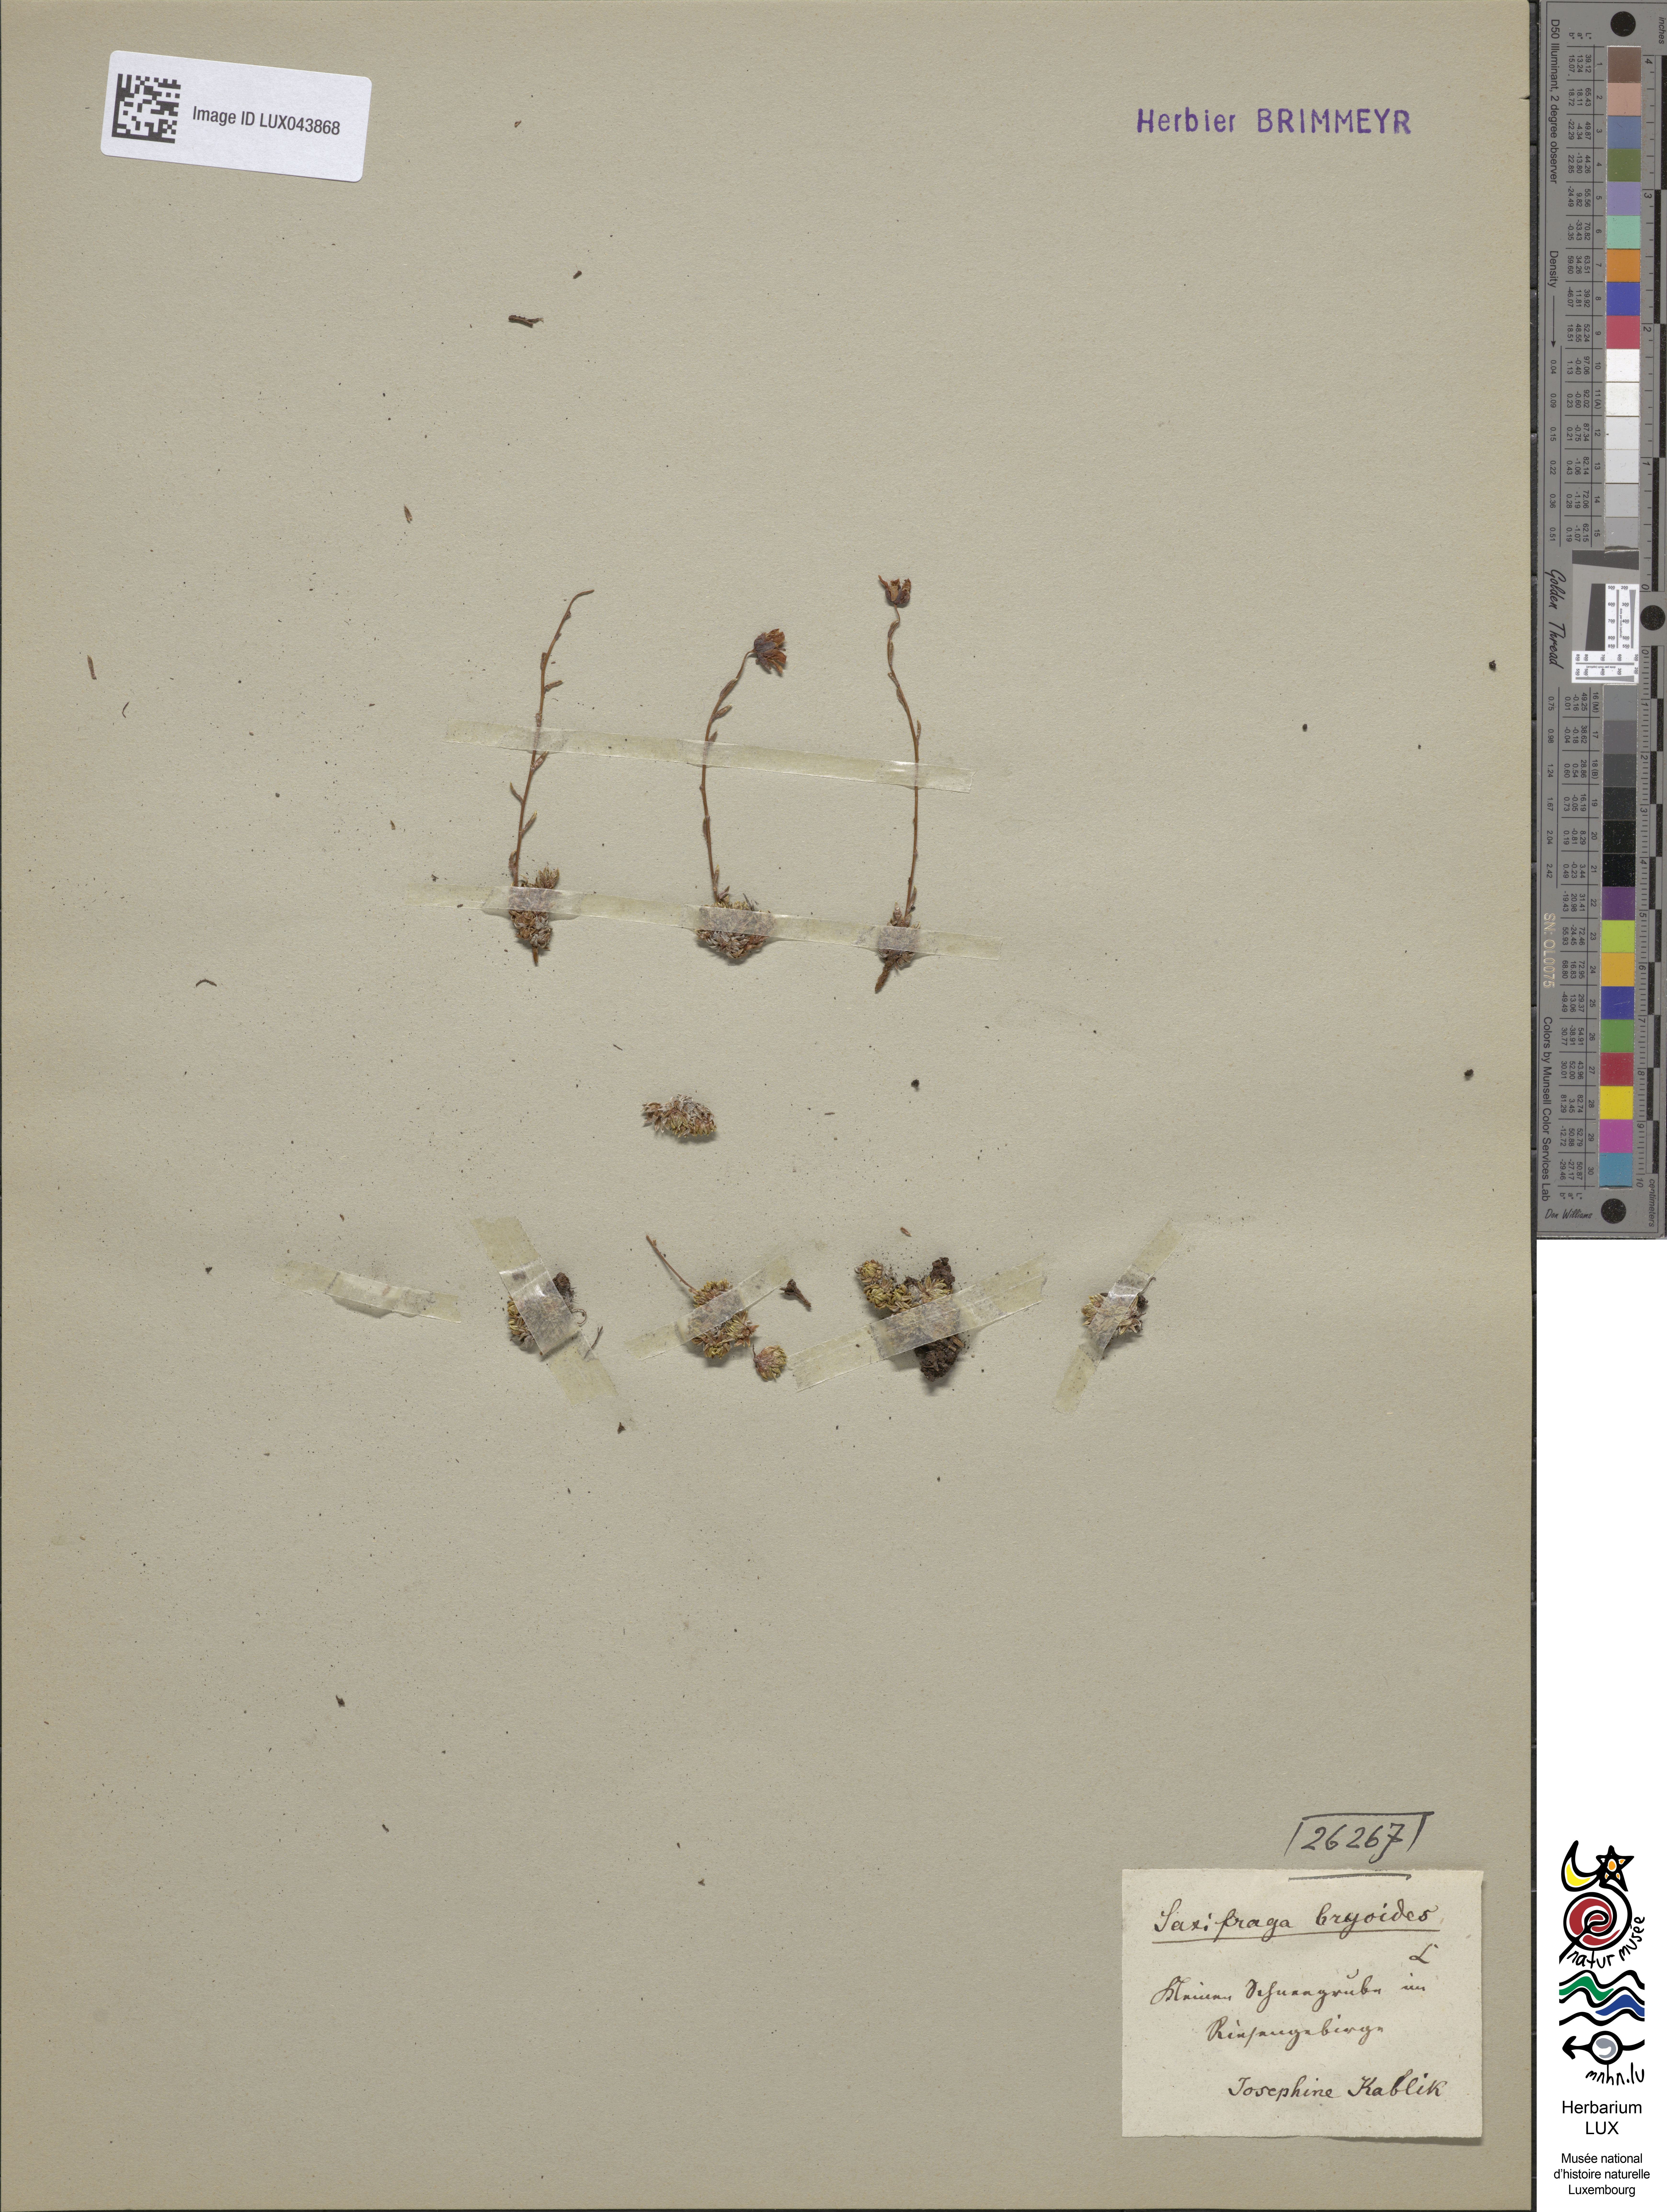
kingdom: Plantae
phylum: Tracheophyta
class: Magnoliopsida
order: Saxifragales
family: Saxifragaceae
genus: Saxifraga
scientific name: Saxifraga bryoides
